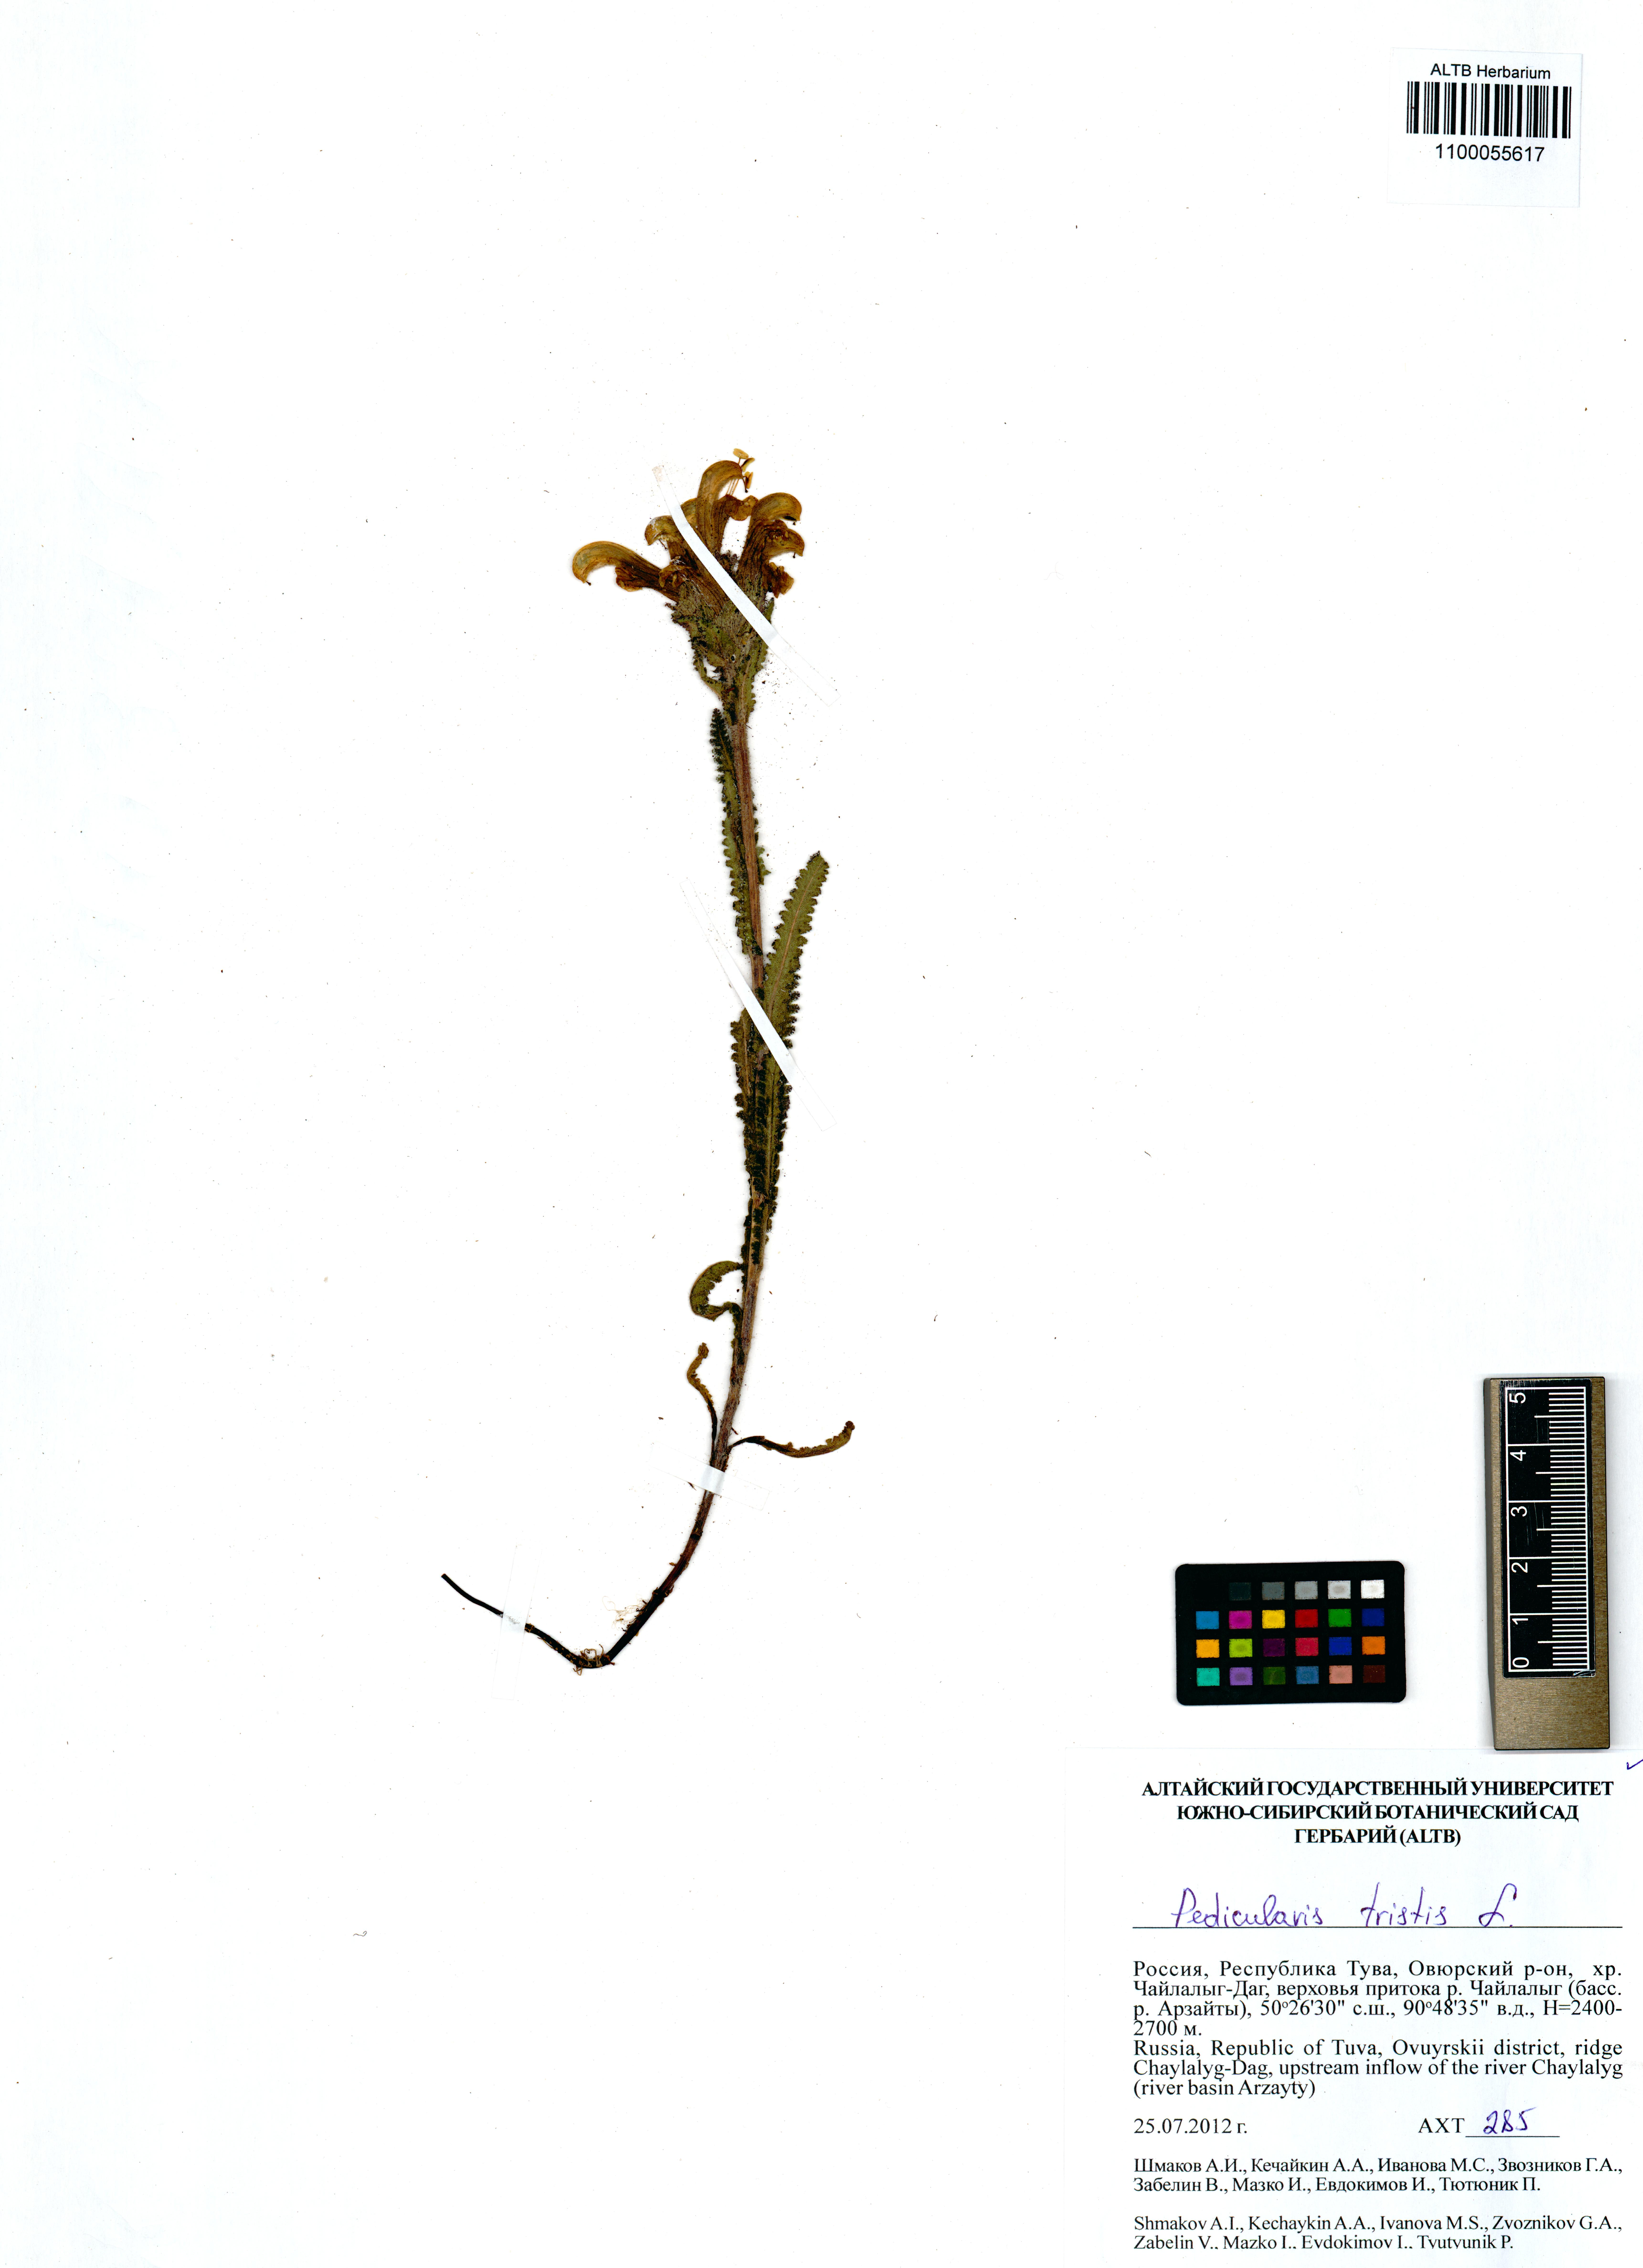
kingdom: Plantae
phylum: Tracheophyta
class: Magnoliopsida
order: Lamiales
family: Orobanchaceae
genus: Pedicularis
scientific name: Pedicularis tristis
